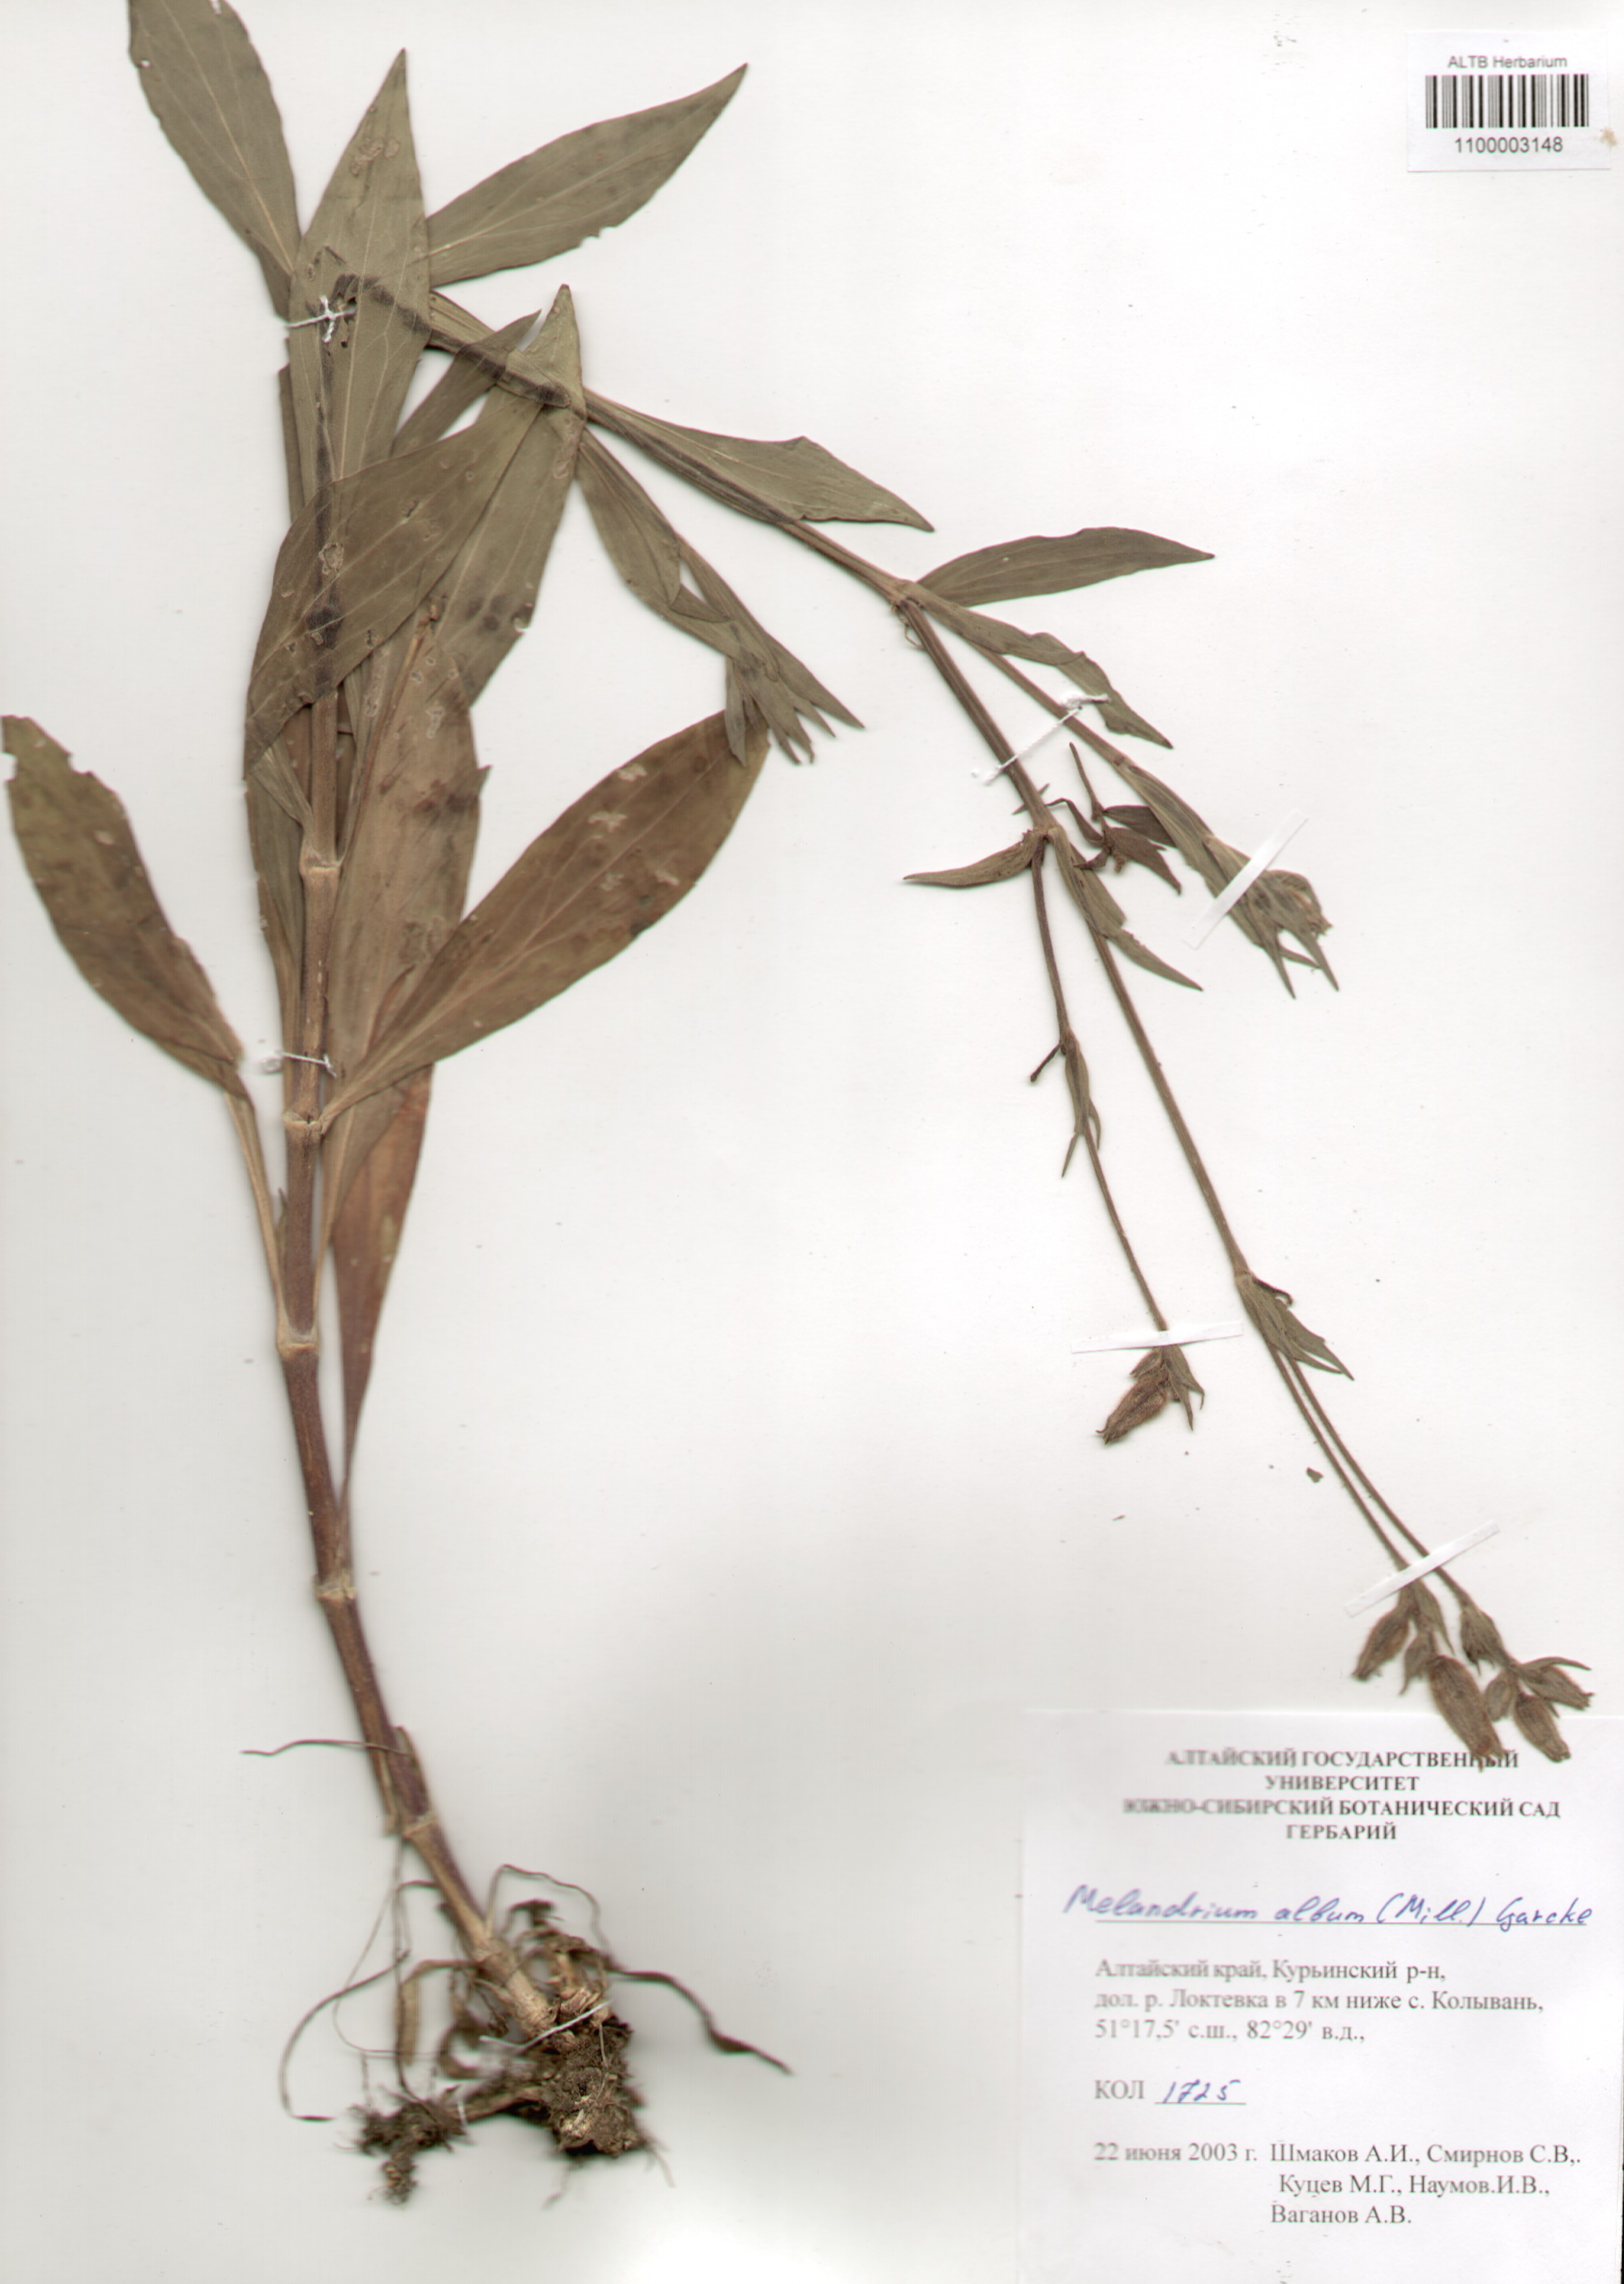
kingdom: Plantae
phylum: Tracheophyta
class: Magnoliopsida
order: Caryophyllales
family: Caryophyllaceae
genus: Silene
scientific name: Silene latifolia
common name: White campion
